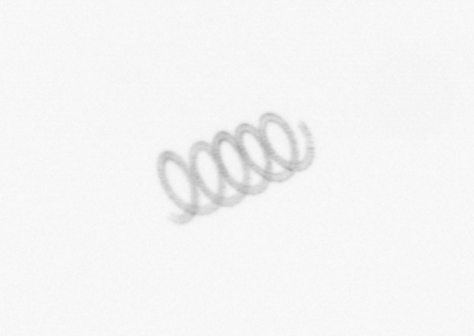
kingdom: Chromista
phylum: Ochrophyta
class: Bacillariophyceae
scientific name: Bacillariophyceae
